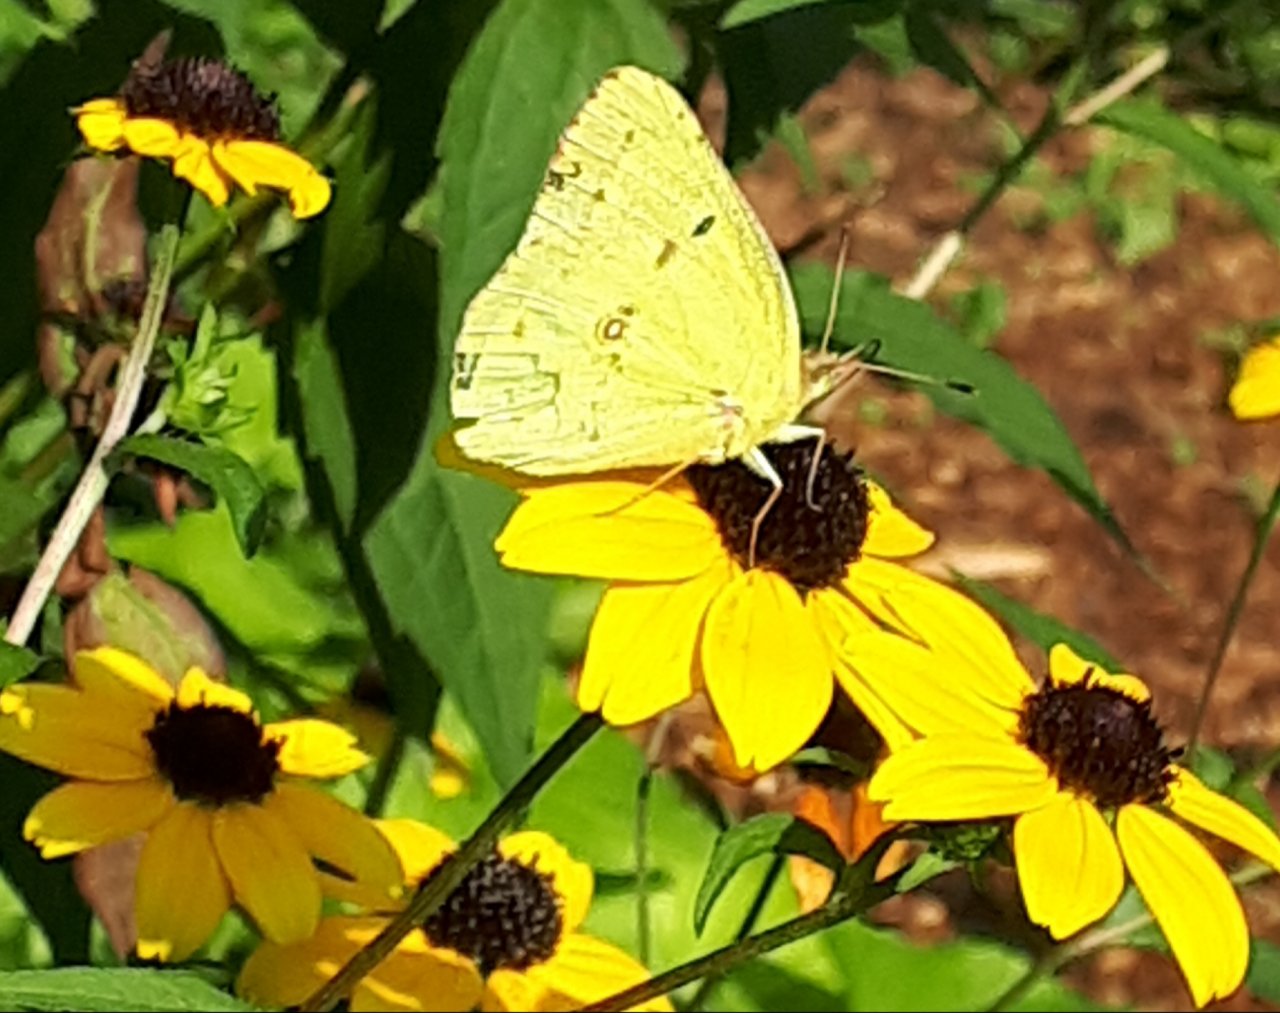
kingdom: Animalia
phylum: Arthropoda
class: Insecta
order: Lepidoptera
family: Pieridae
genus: Colias
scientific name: Colias philodice
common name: Clouded Sulphur
